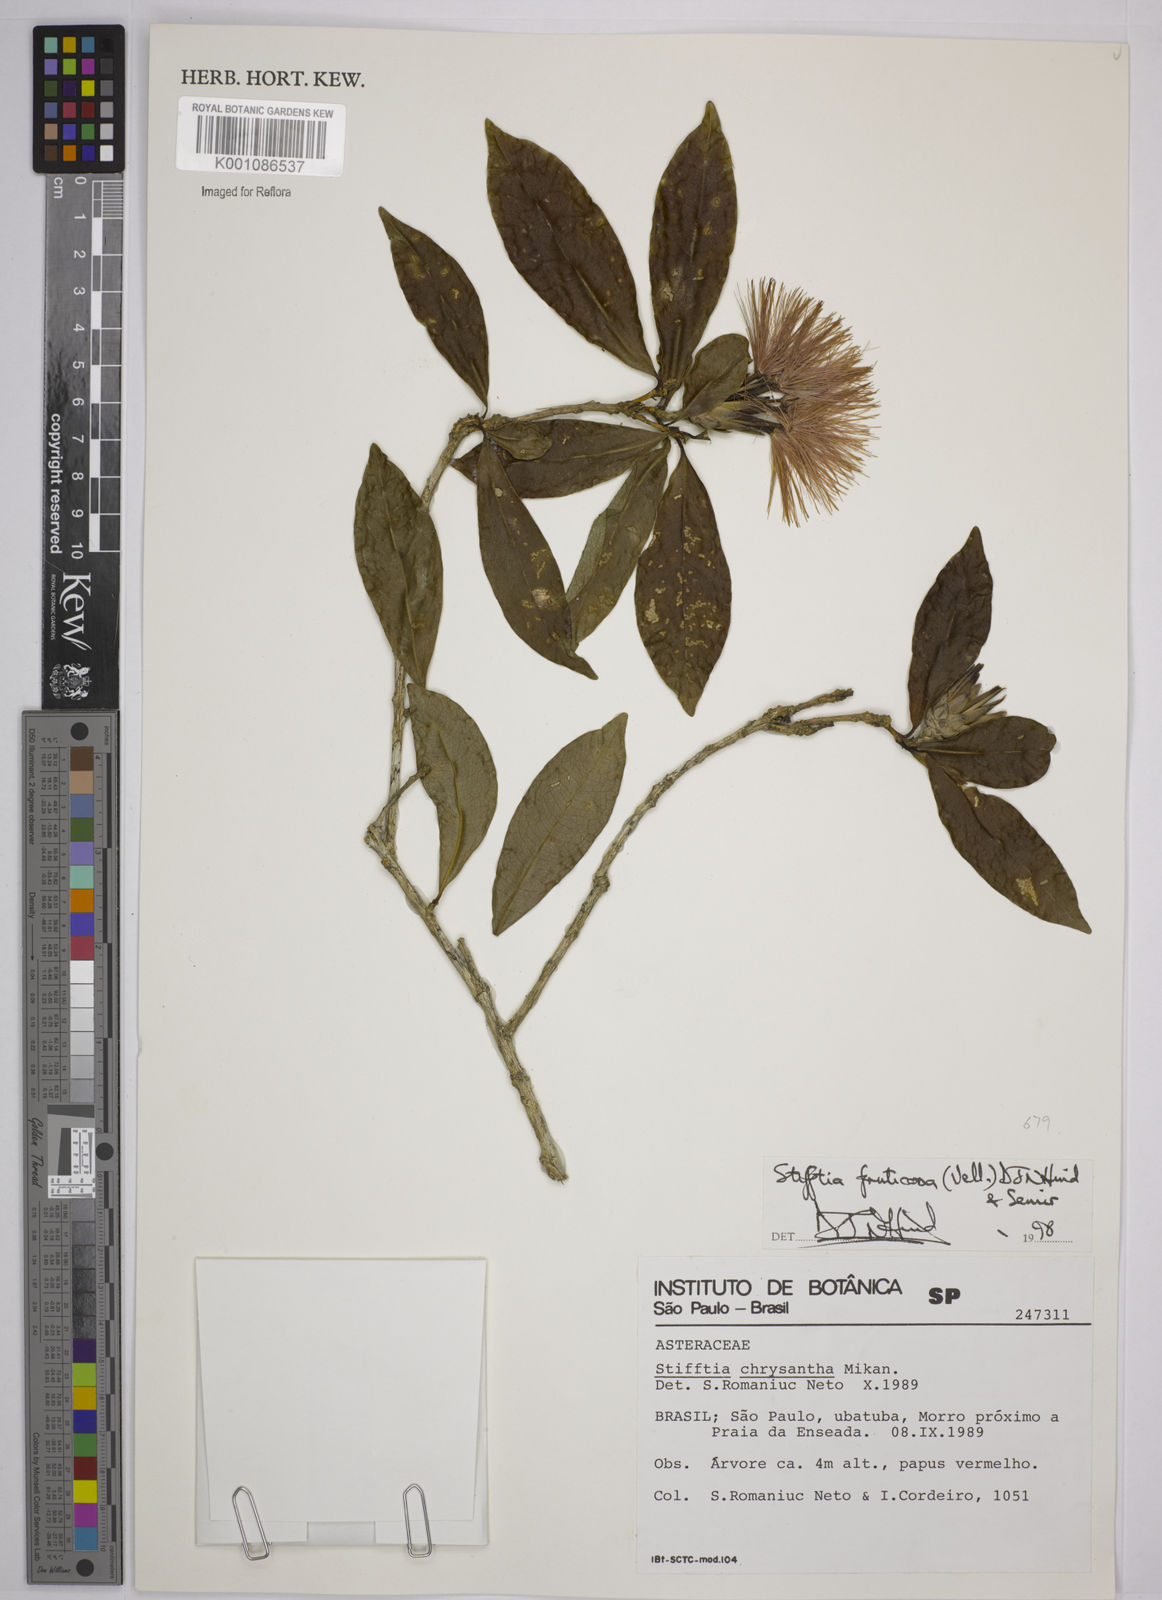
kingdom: Plantae
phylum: Tracheophyta
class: Magnoliopsida
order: Asterales
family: Asteraceae
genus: Stifftia
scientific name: Stifftia fruticosa
